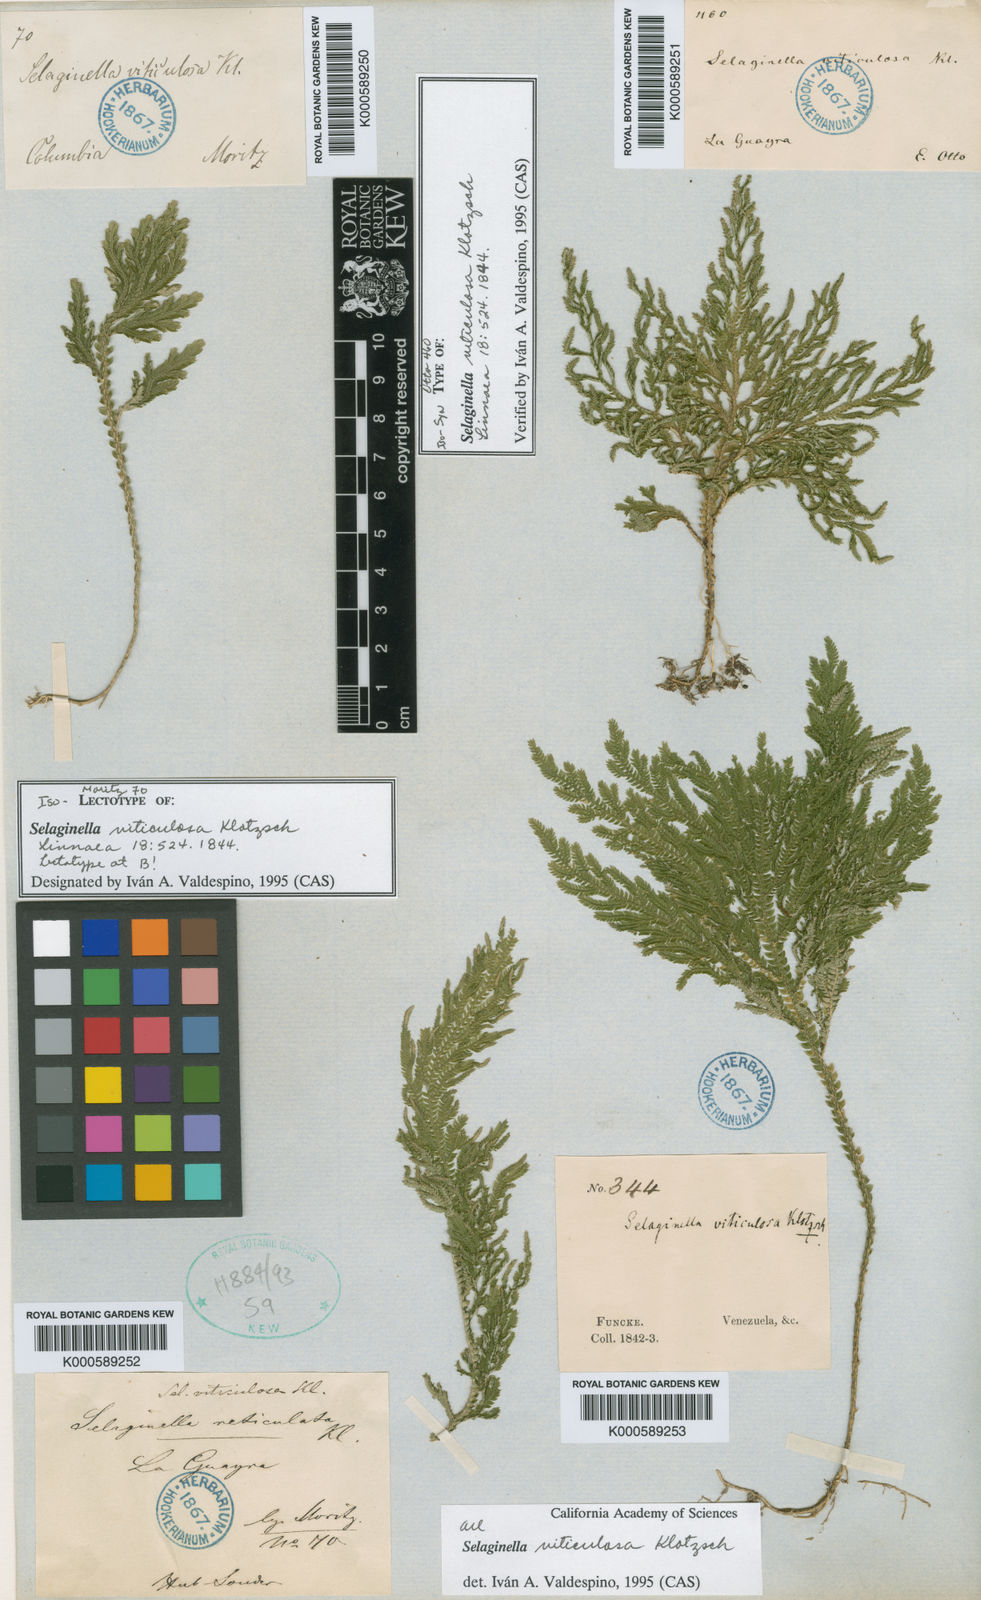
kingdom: Plantae
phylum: Tracheophyta
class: Lycopodiopsida
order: Selaginellales
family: Selaginellaceae
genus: Selaginella
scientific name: Selaginella viticulosa
